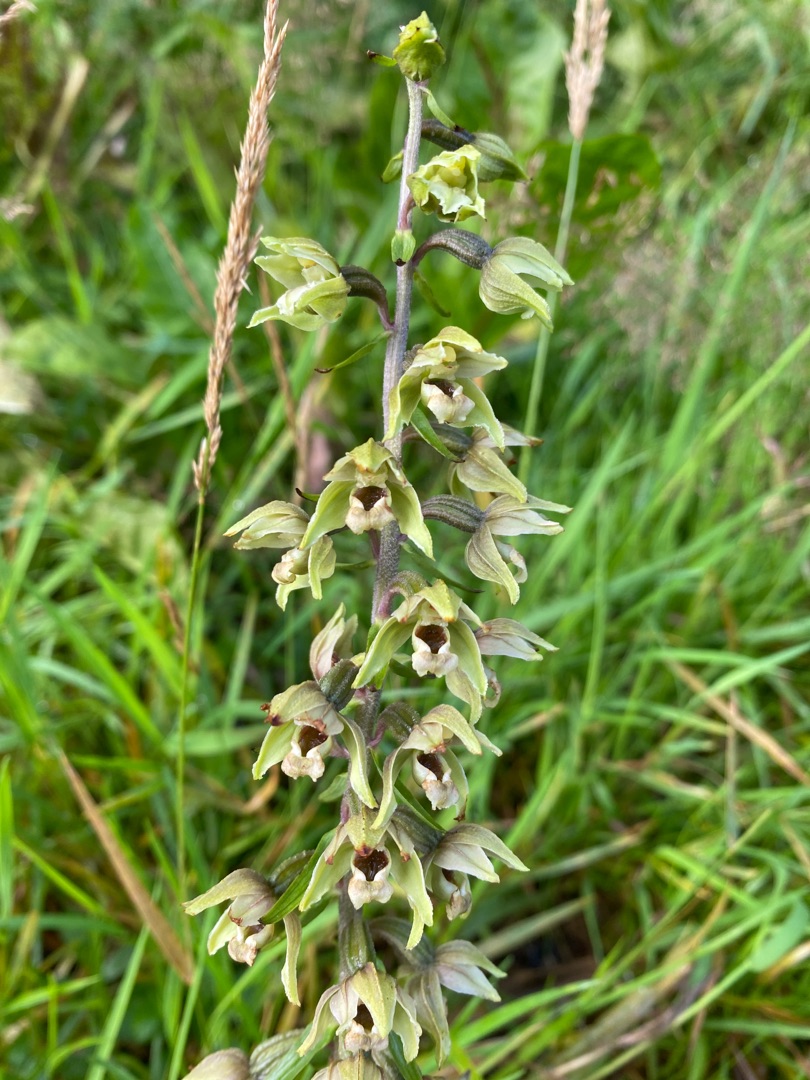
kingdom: Plantae
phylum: Tracheophyta
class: Liliopsida
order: Asparagales
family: Orchidaceae
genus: Epipactis
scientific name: Epipactis helleborine
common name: Skov-hullæbe
